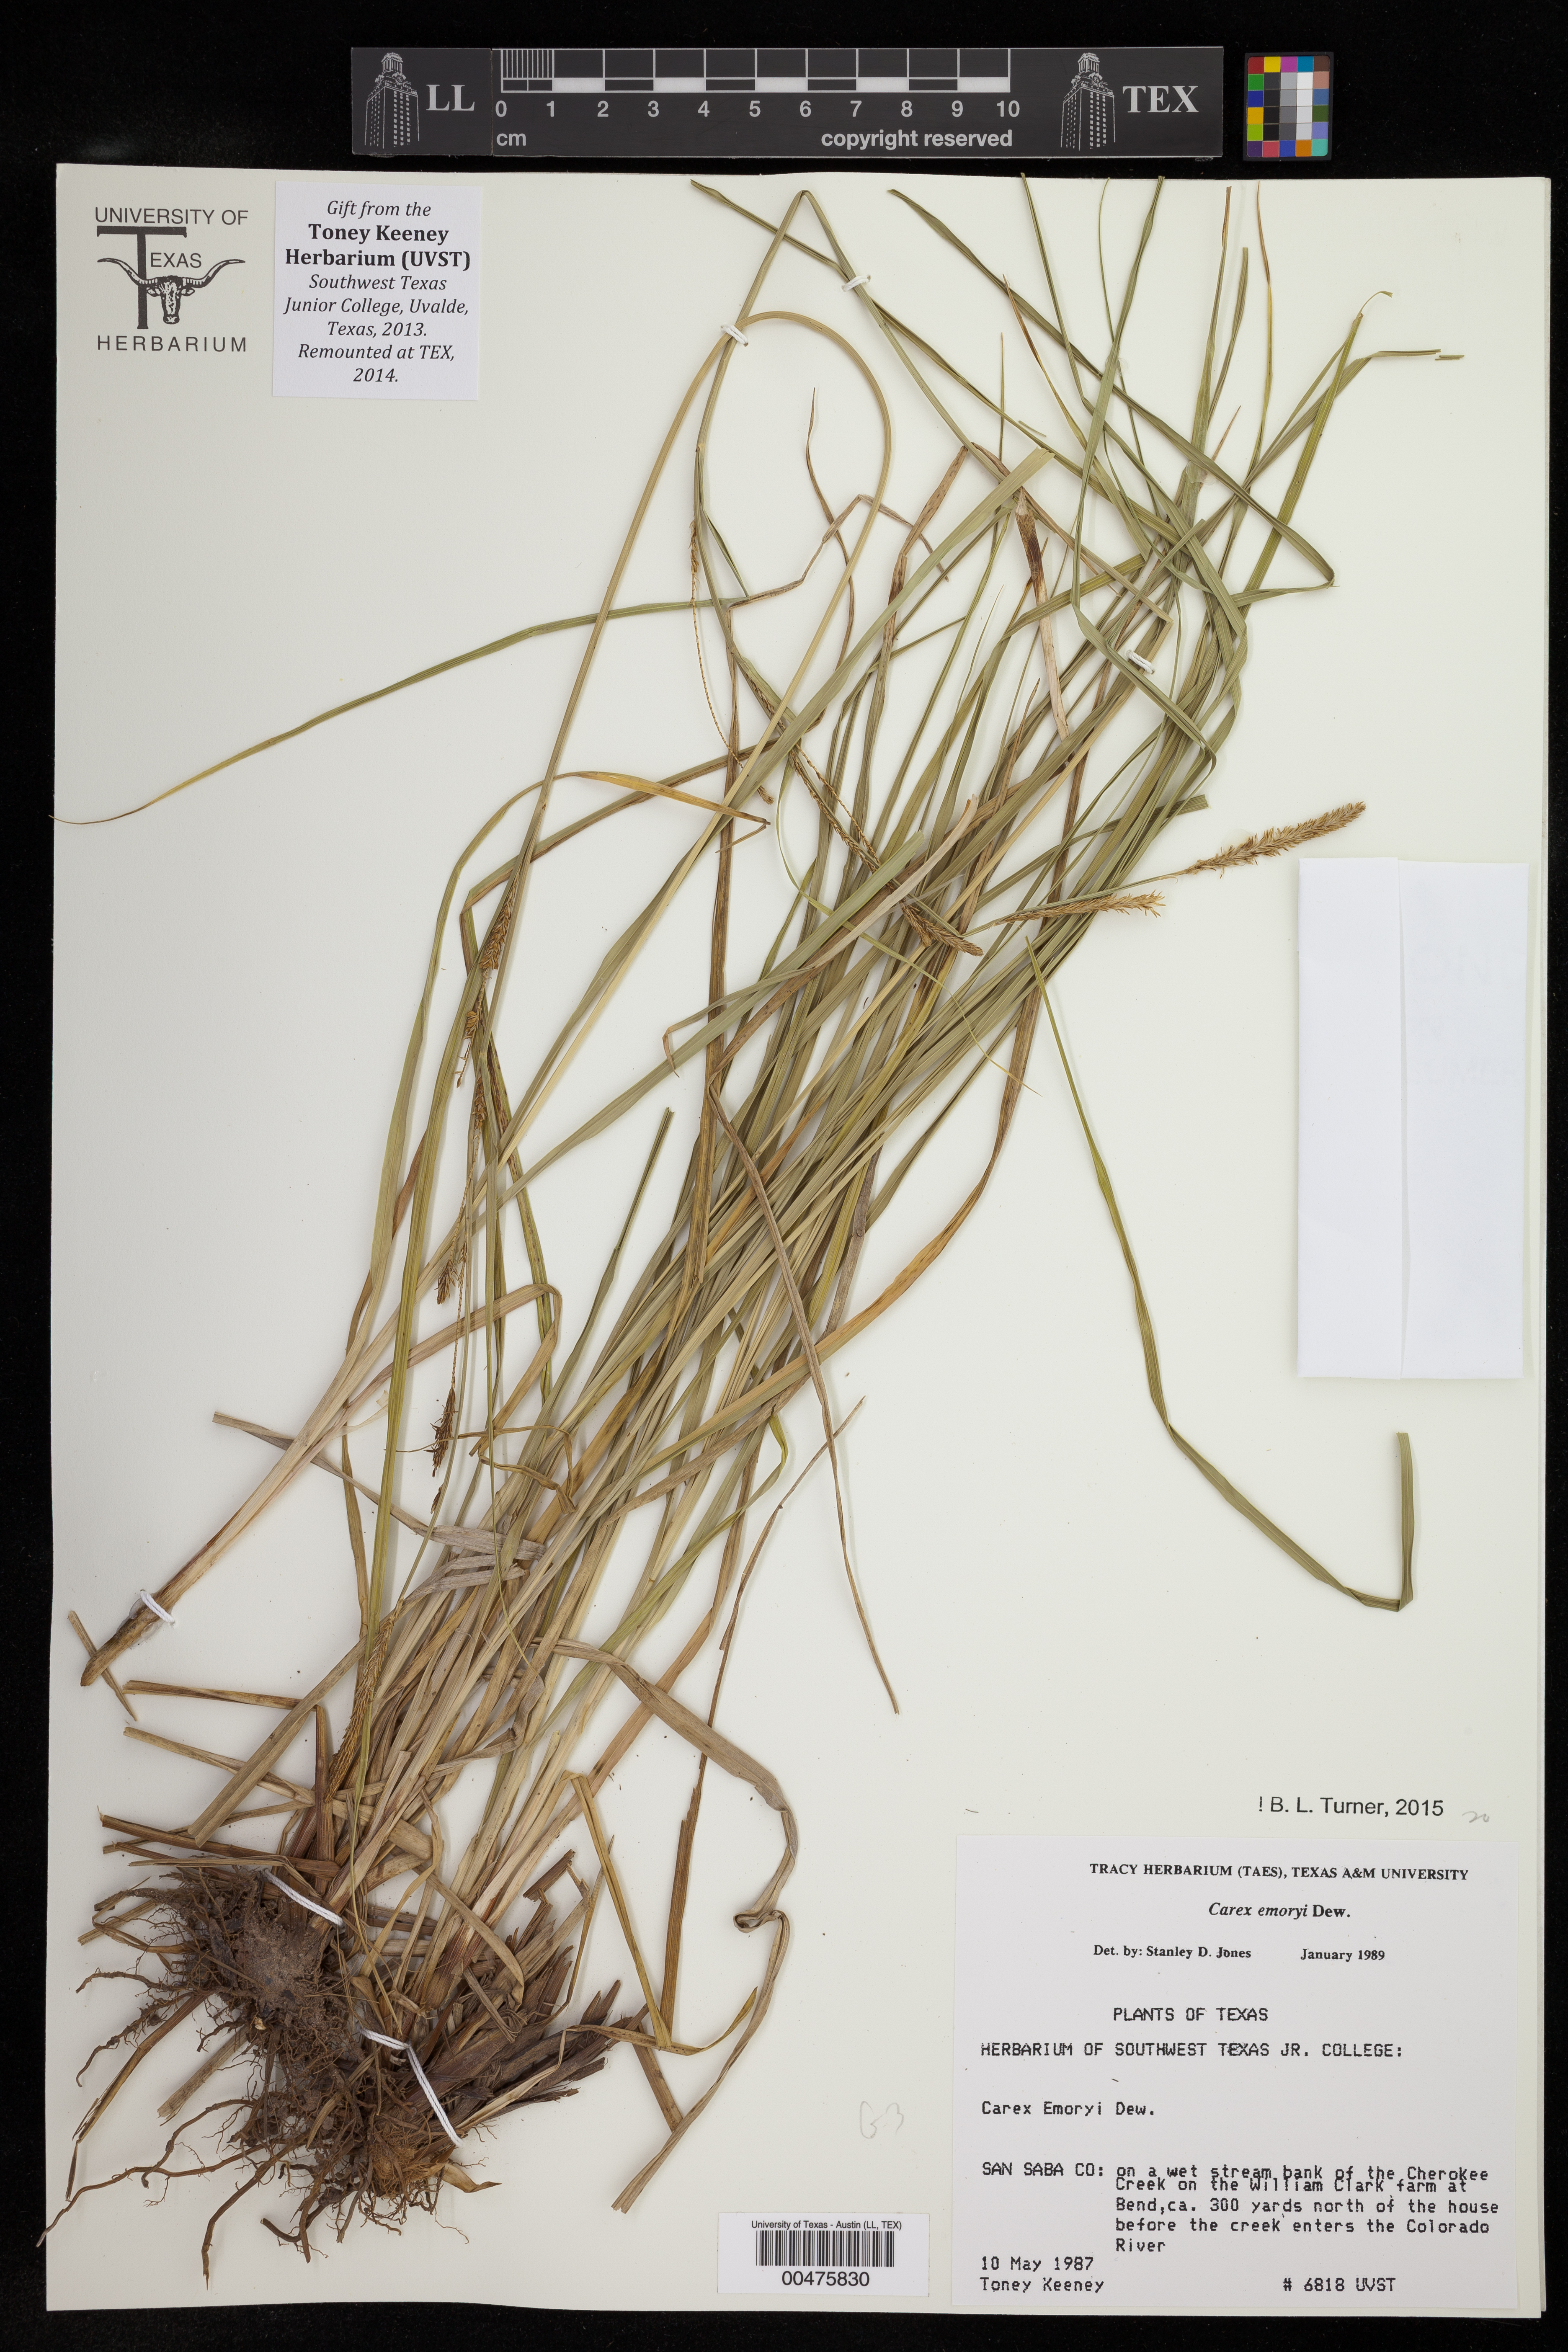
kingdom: Plantae
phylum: Tracheophyta
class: Liliopsida
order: Poales
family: Cyperaceae
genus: Carex
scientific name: Carex emoryi
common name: Emory's sedge
